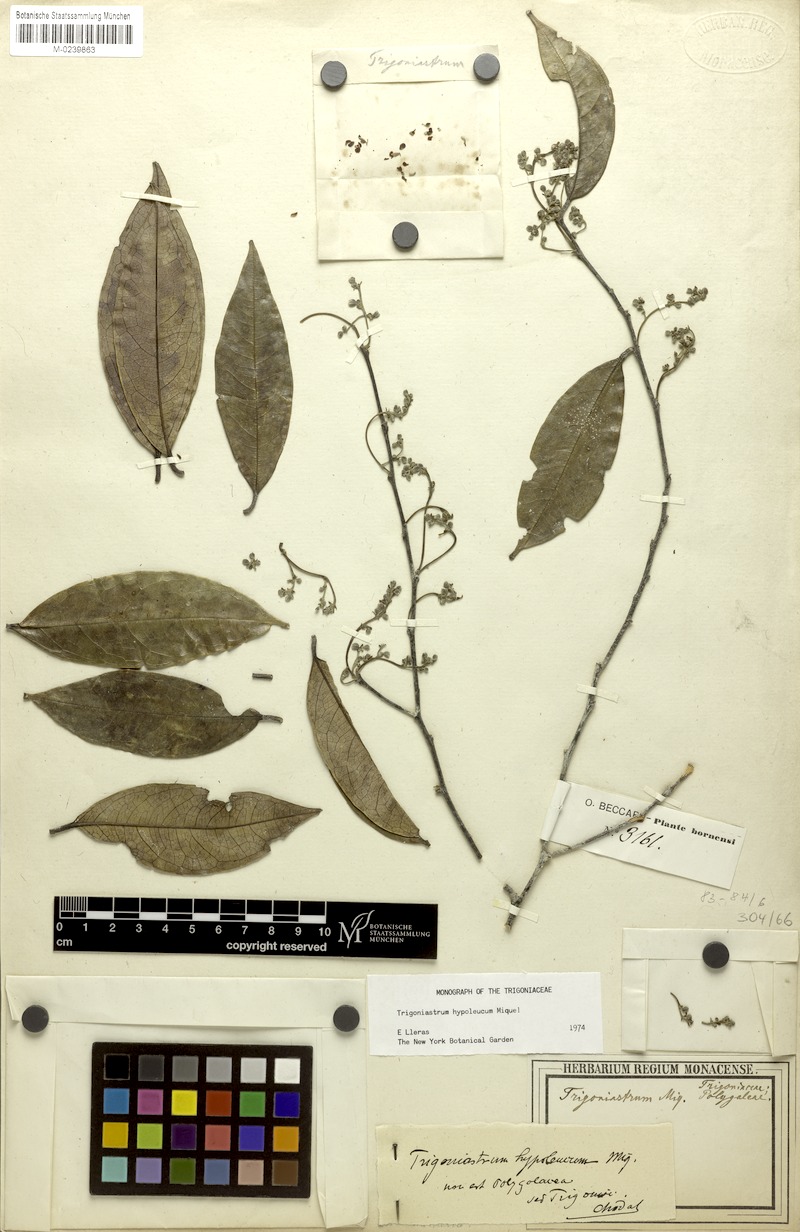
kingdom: Plantae
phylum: Tracheophyta
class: Magnoliopsida
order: Malpighiales
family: Trigoniaceae
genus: Trigoniastrum
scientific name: Trigoniastrum hypoleucum
